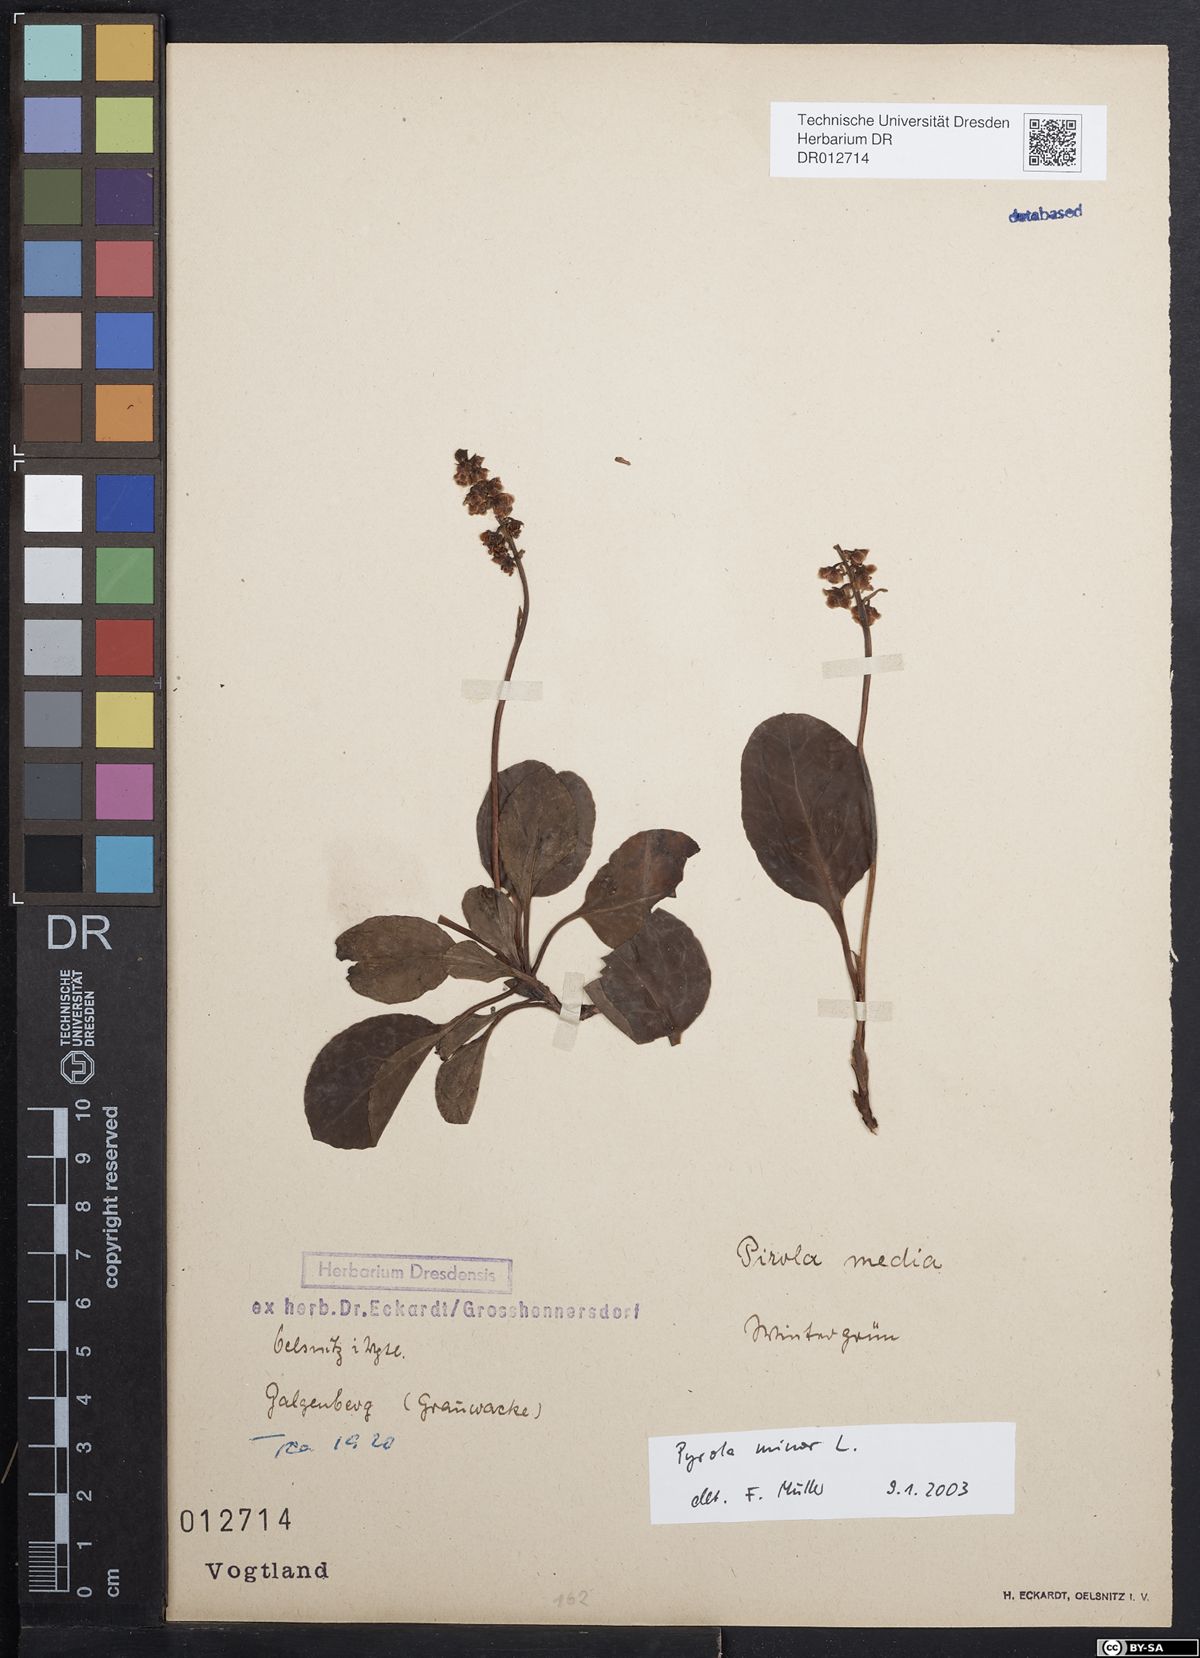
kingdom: Plantae
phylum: Tracheophyta
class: Magnoliopsida
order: Ericales
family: Ericaceae
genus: Pyrola
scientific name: Pyrola minor
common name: Common wintergreen
